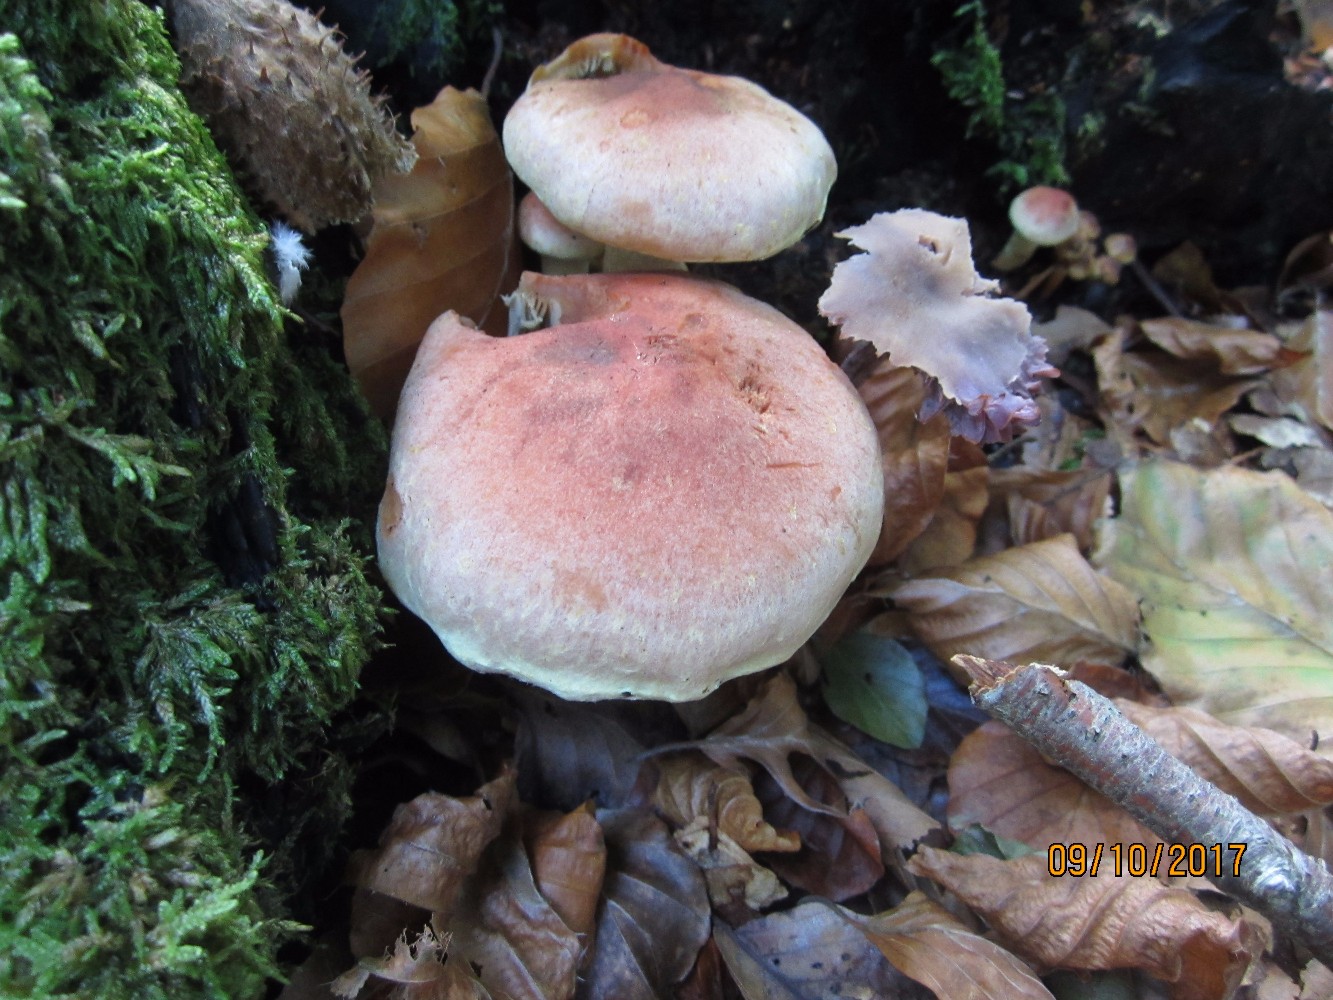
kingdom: Fungi
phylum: Basidiomycota
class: Agaricomycetes
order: Agaricales
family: Strophariaceae
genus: Hypholoma
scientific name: Hypholoma lateritium
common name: teglrød svovlhat
